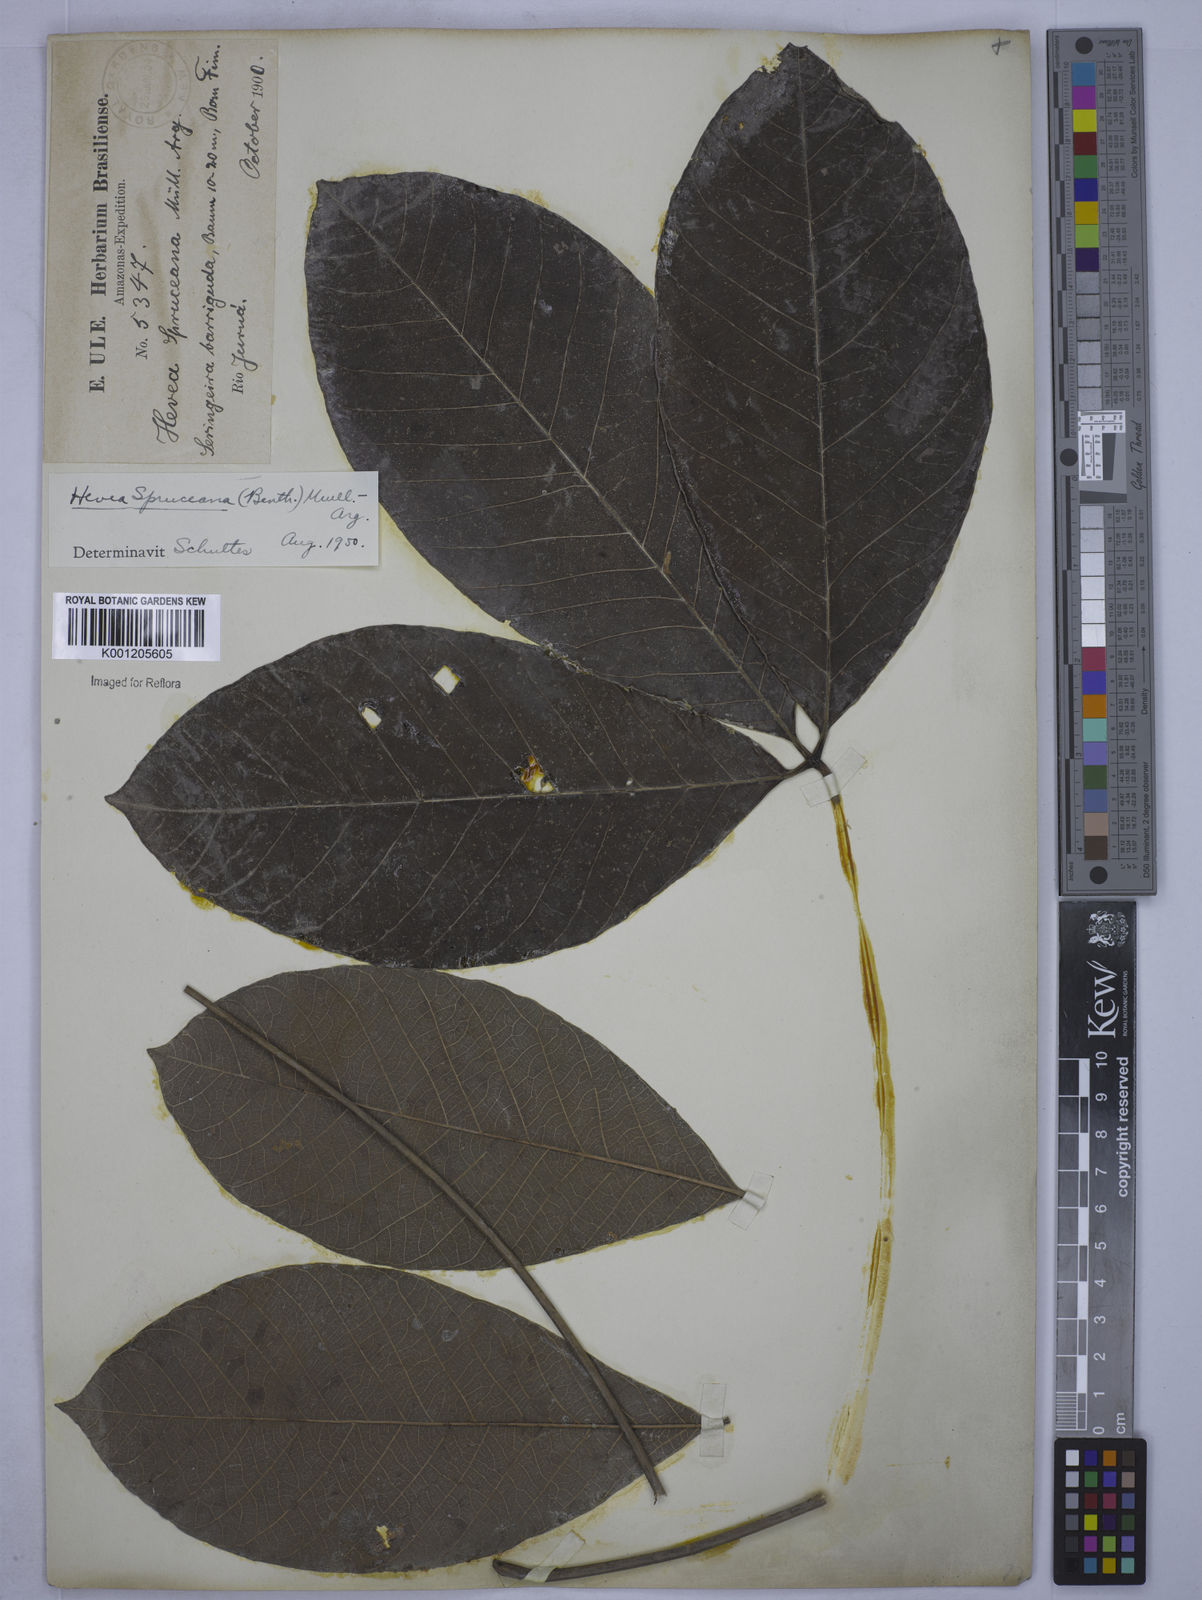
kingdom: Plantae
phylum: Tracheophyta
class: Magnoliopsida
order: Malpighiales
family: Euphorbiaceae
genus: Hevea
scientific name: Hevea
